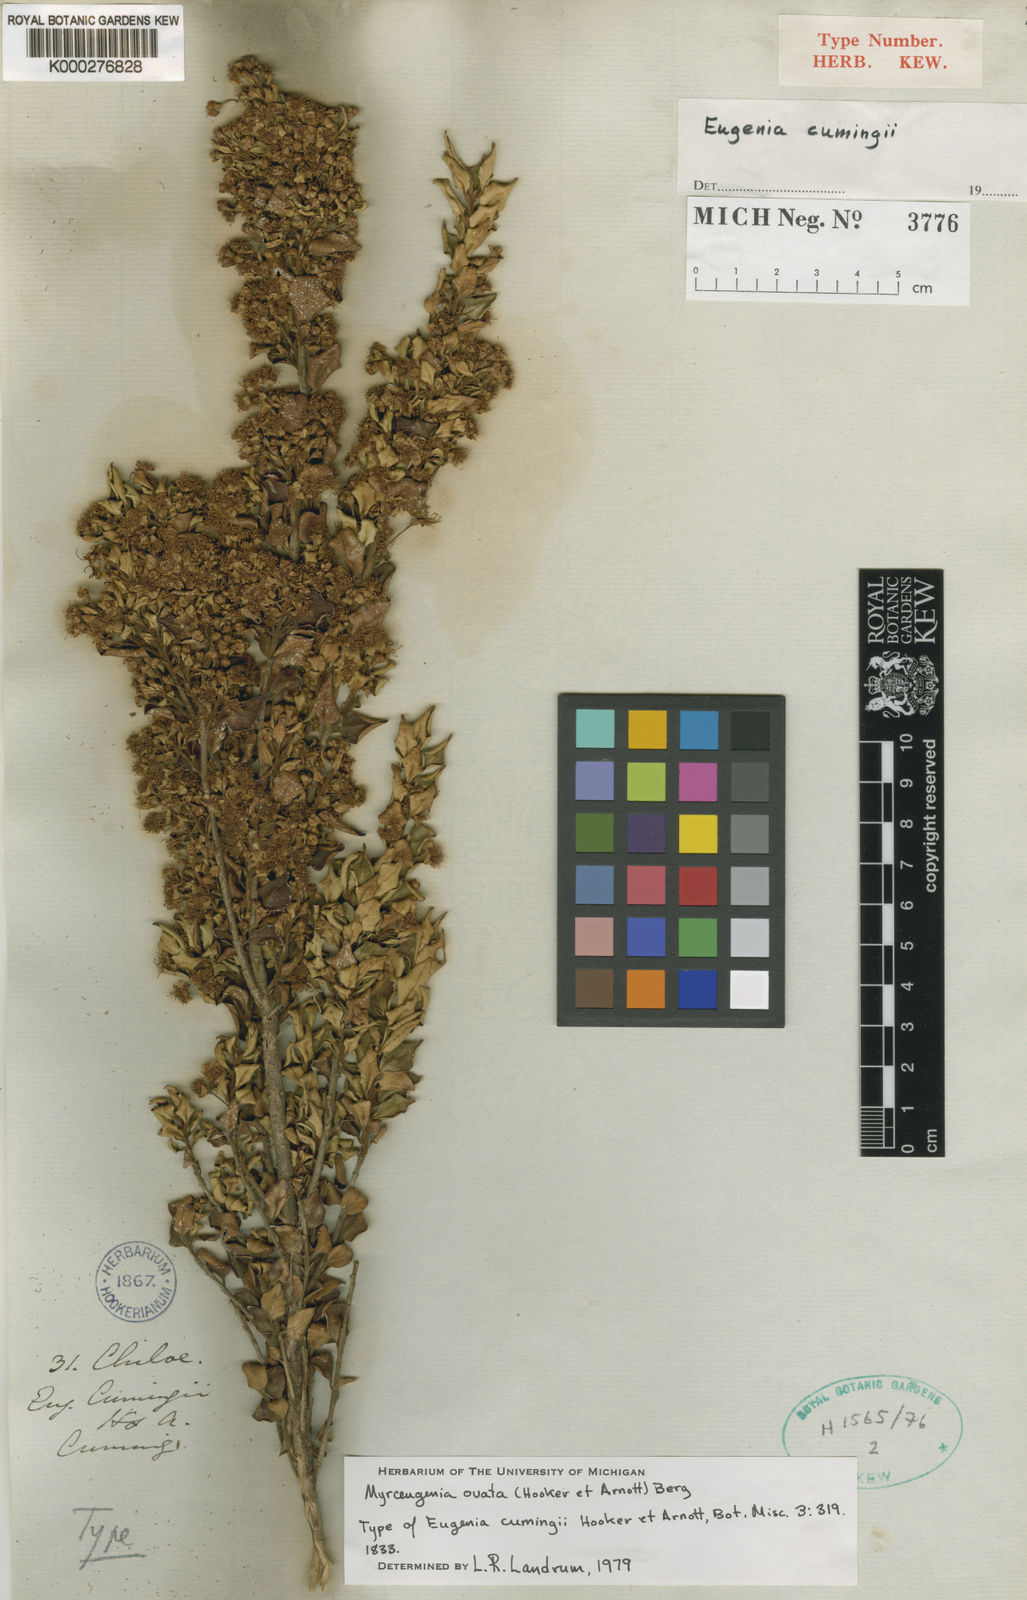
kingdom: Plantae
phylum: Tracheophyta
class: Magnoliopsida
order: Myrtales
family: Myrtaceae
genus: Myrceugenia
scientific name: Myrceugenia ovata
